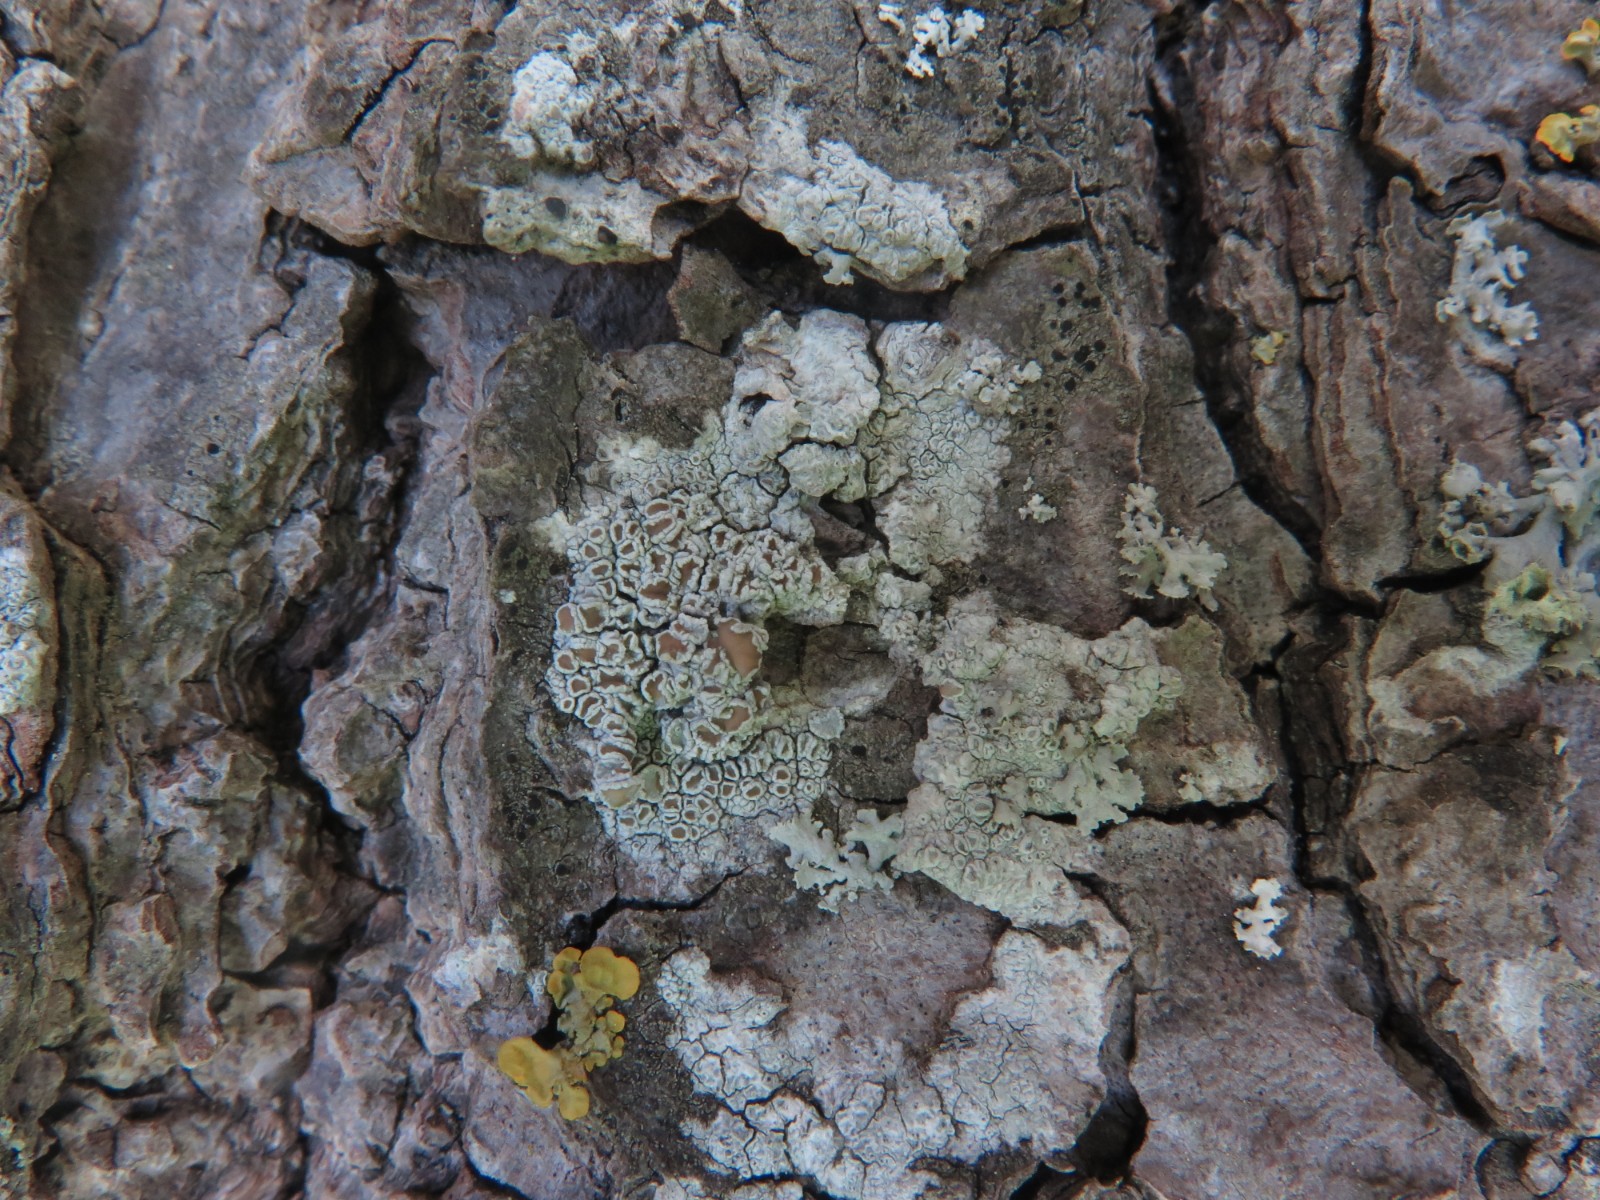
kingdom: Fungi
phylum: Ascomycota
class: Lecanoromycetes
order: Lecanorales
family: Lecanoraceae
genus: Lecanora
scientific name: Lecanora chlarotera
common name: brun kantskivelav
